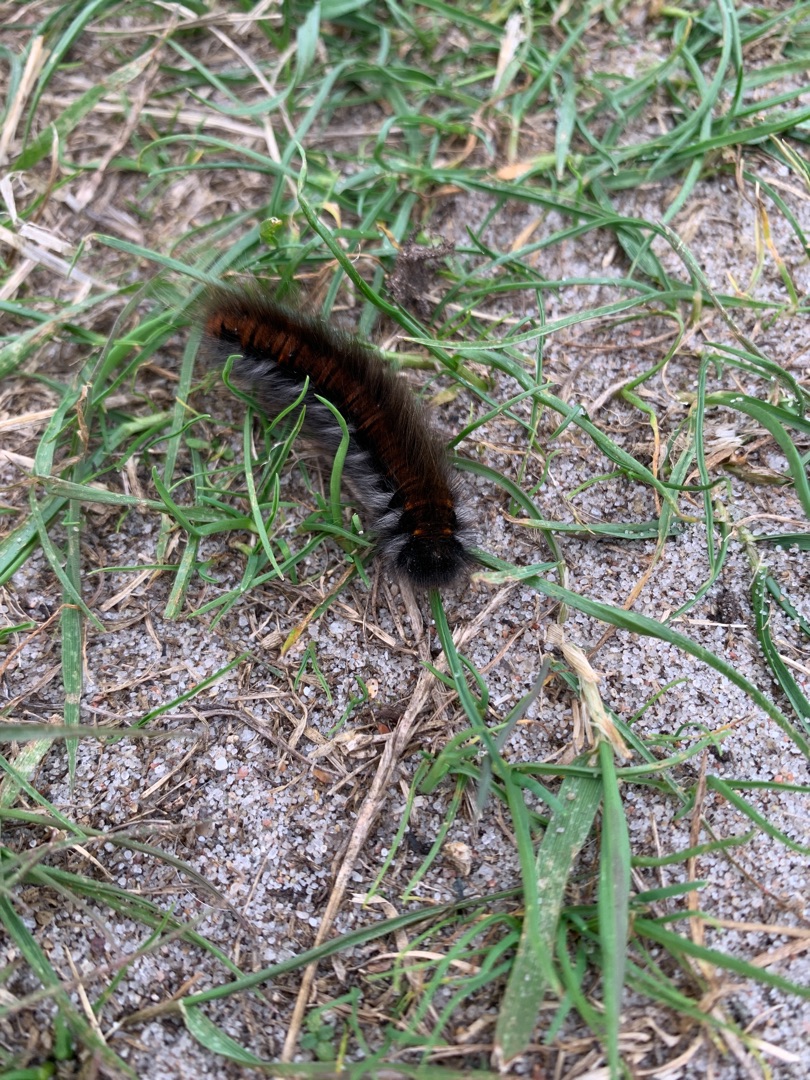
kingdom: Animalia
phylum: Arthropoda
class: Insecta
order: Lepidoptera
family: Lasiocampidae
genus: Macrothylacia
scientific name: Macrothylacia rubi
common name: Brombærspinder
